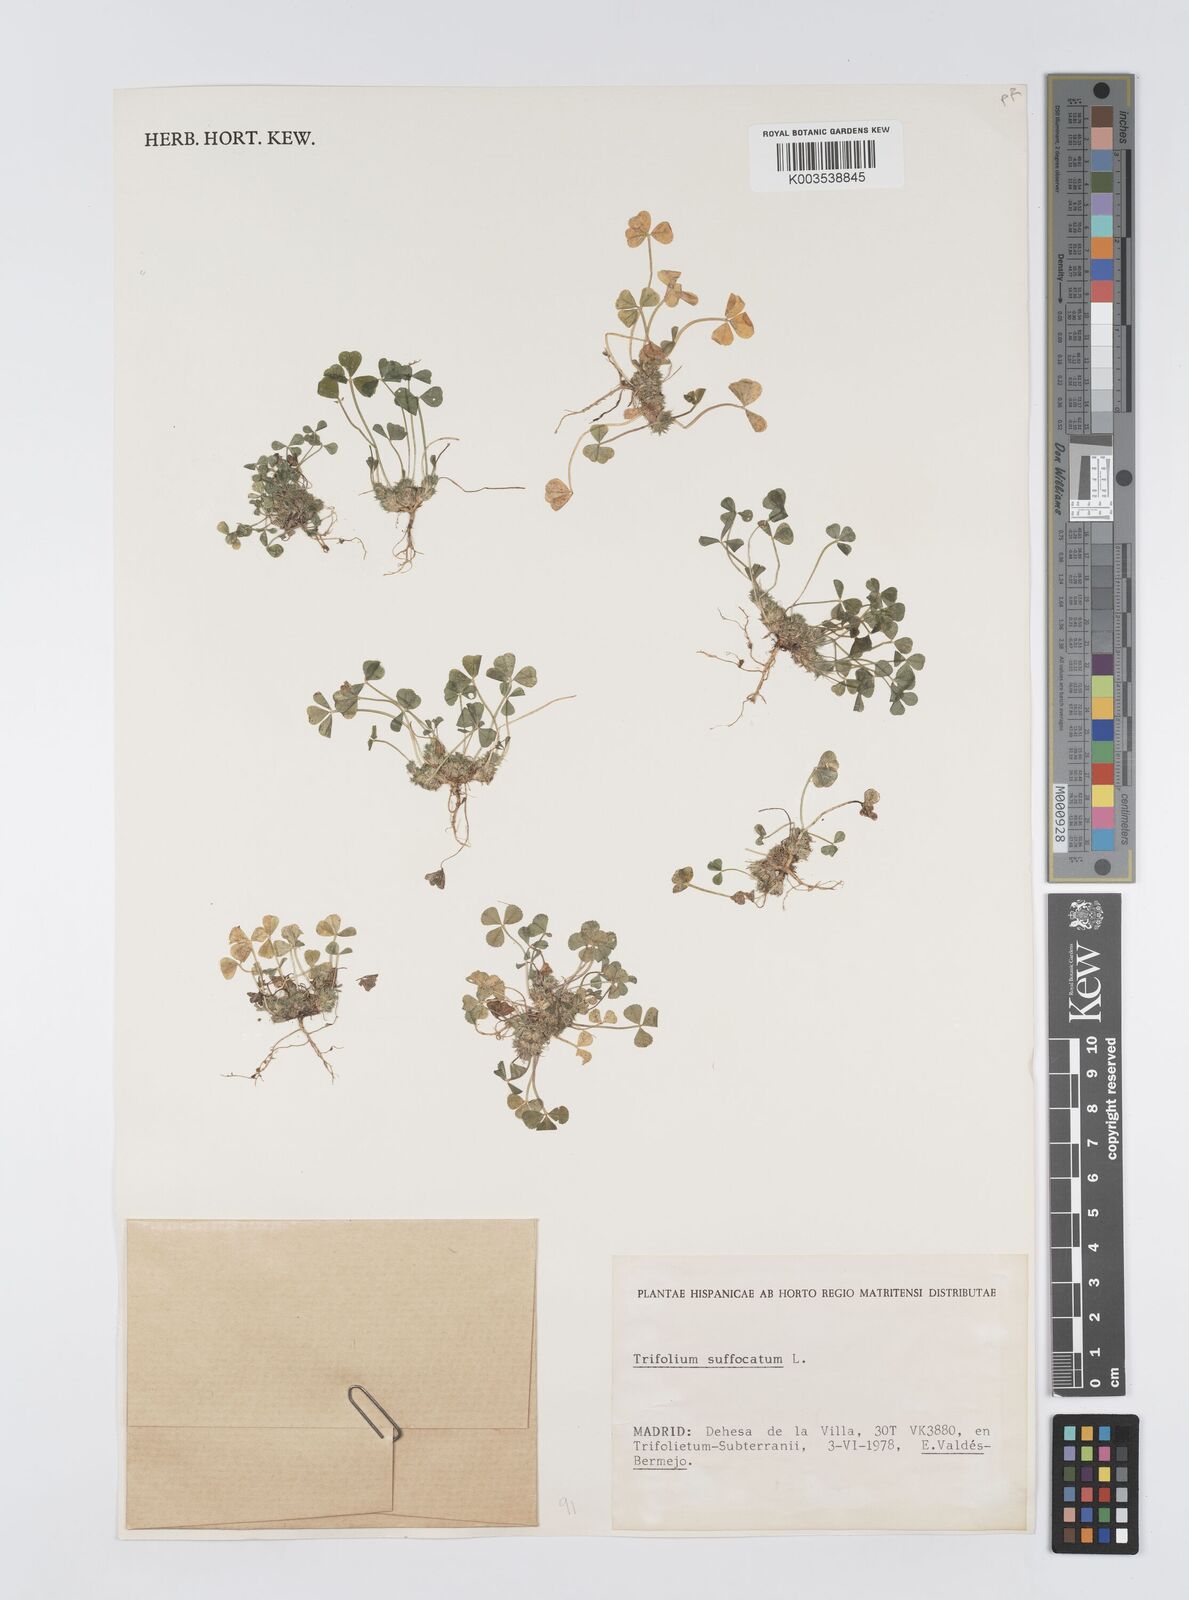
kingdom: Plantae
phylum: Tracheophyta
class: Magnoliopsida
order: Fabales
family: Fabaceae
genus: Trifolium
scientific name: Trifolium suffocatum
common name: Suffocated clover
